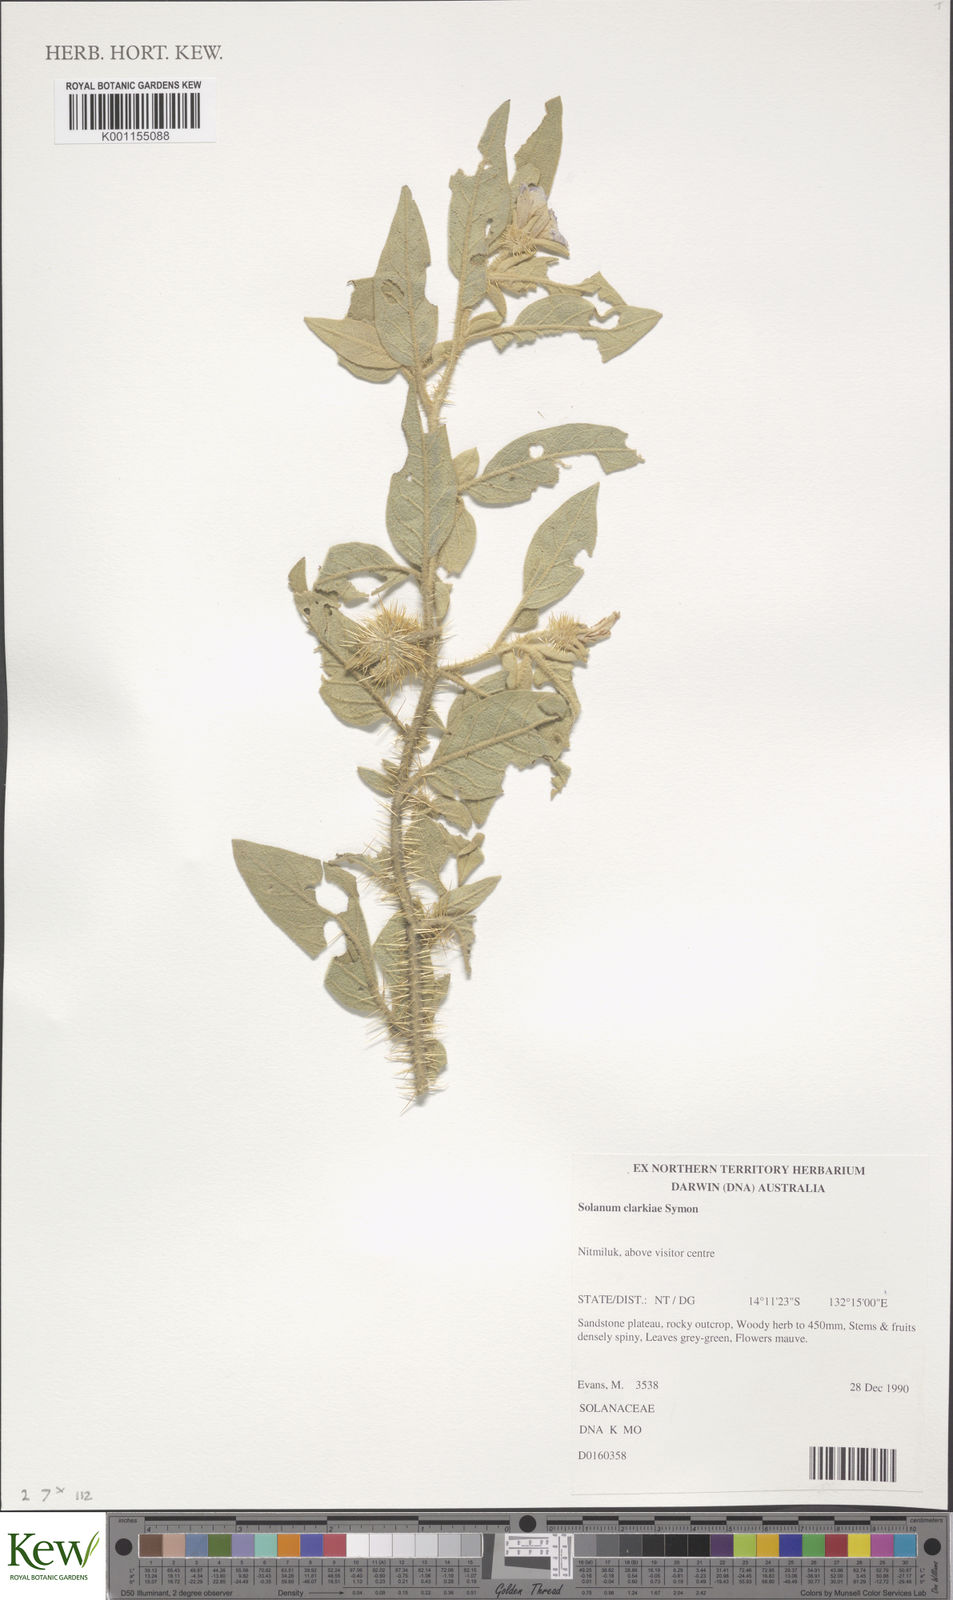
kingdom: Plantae
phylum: Tracheophyta
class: Magnoliopsida
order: Solanales
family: Solanaceae
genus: Solanum
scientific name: Solanum clarkiae
